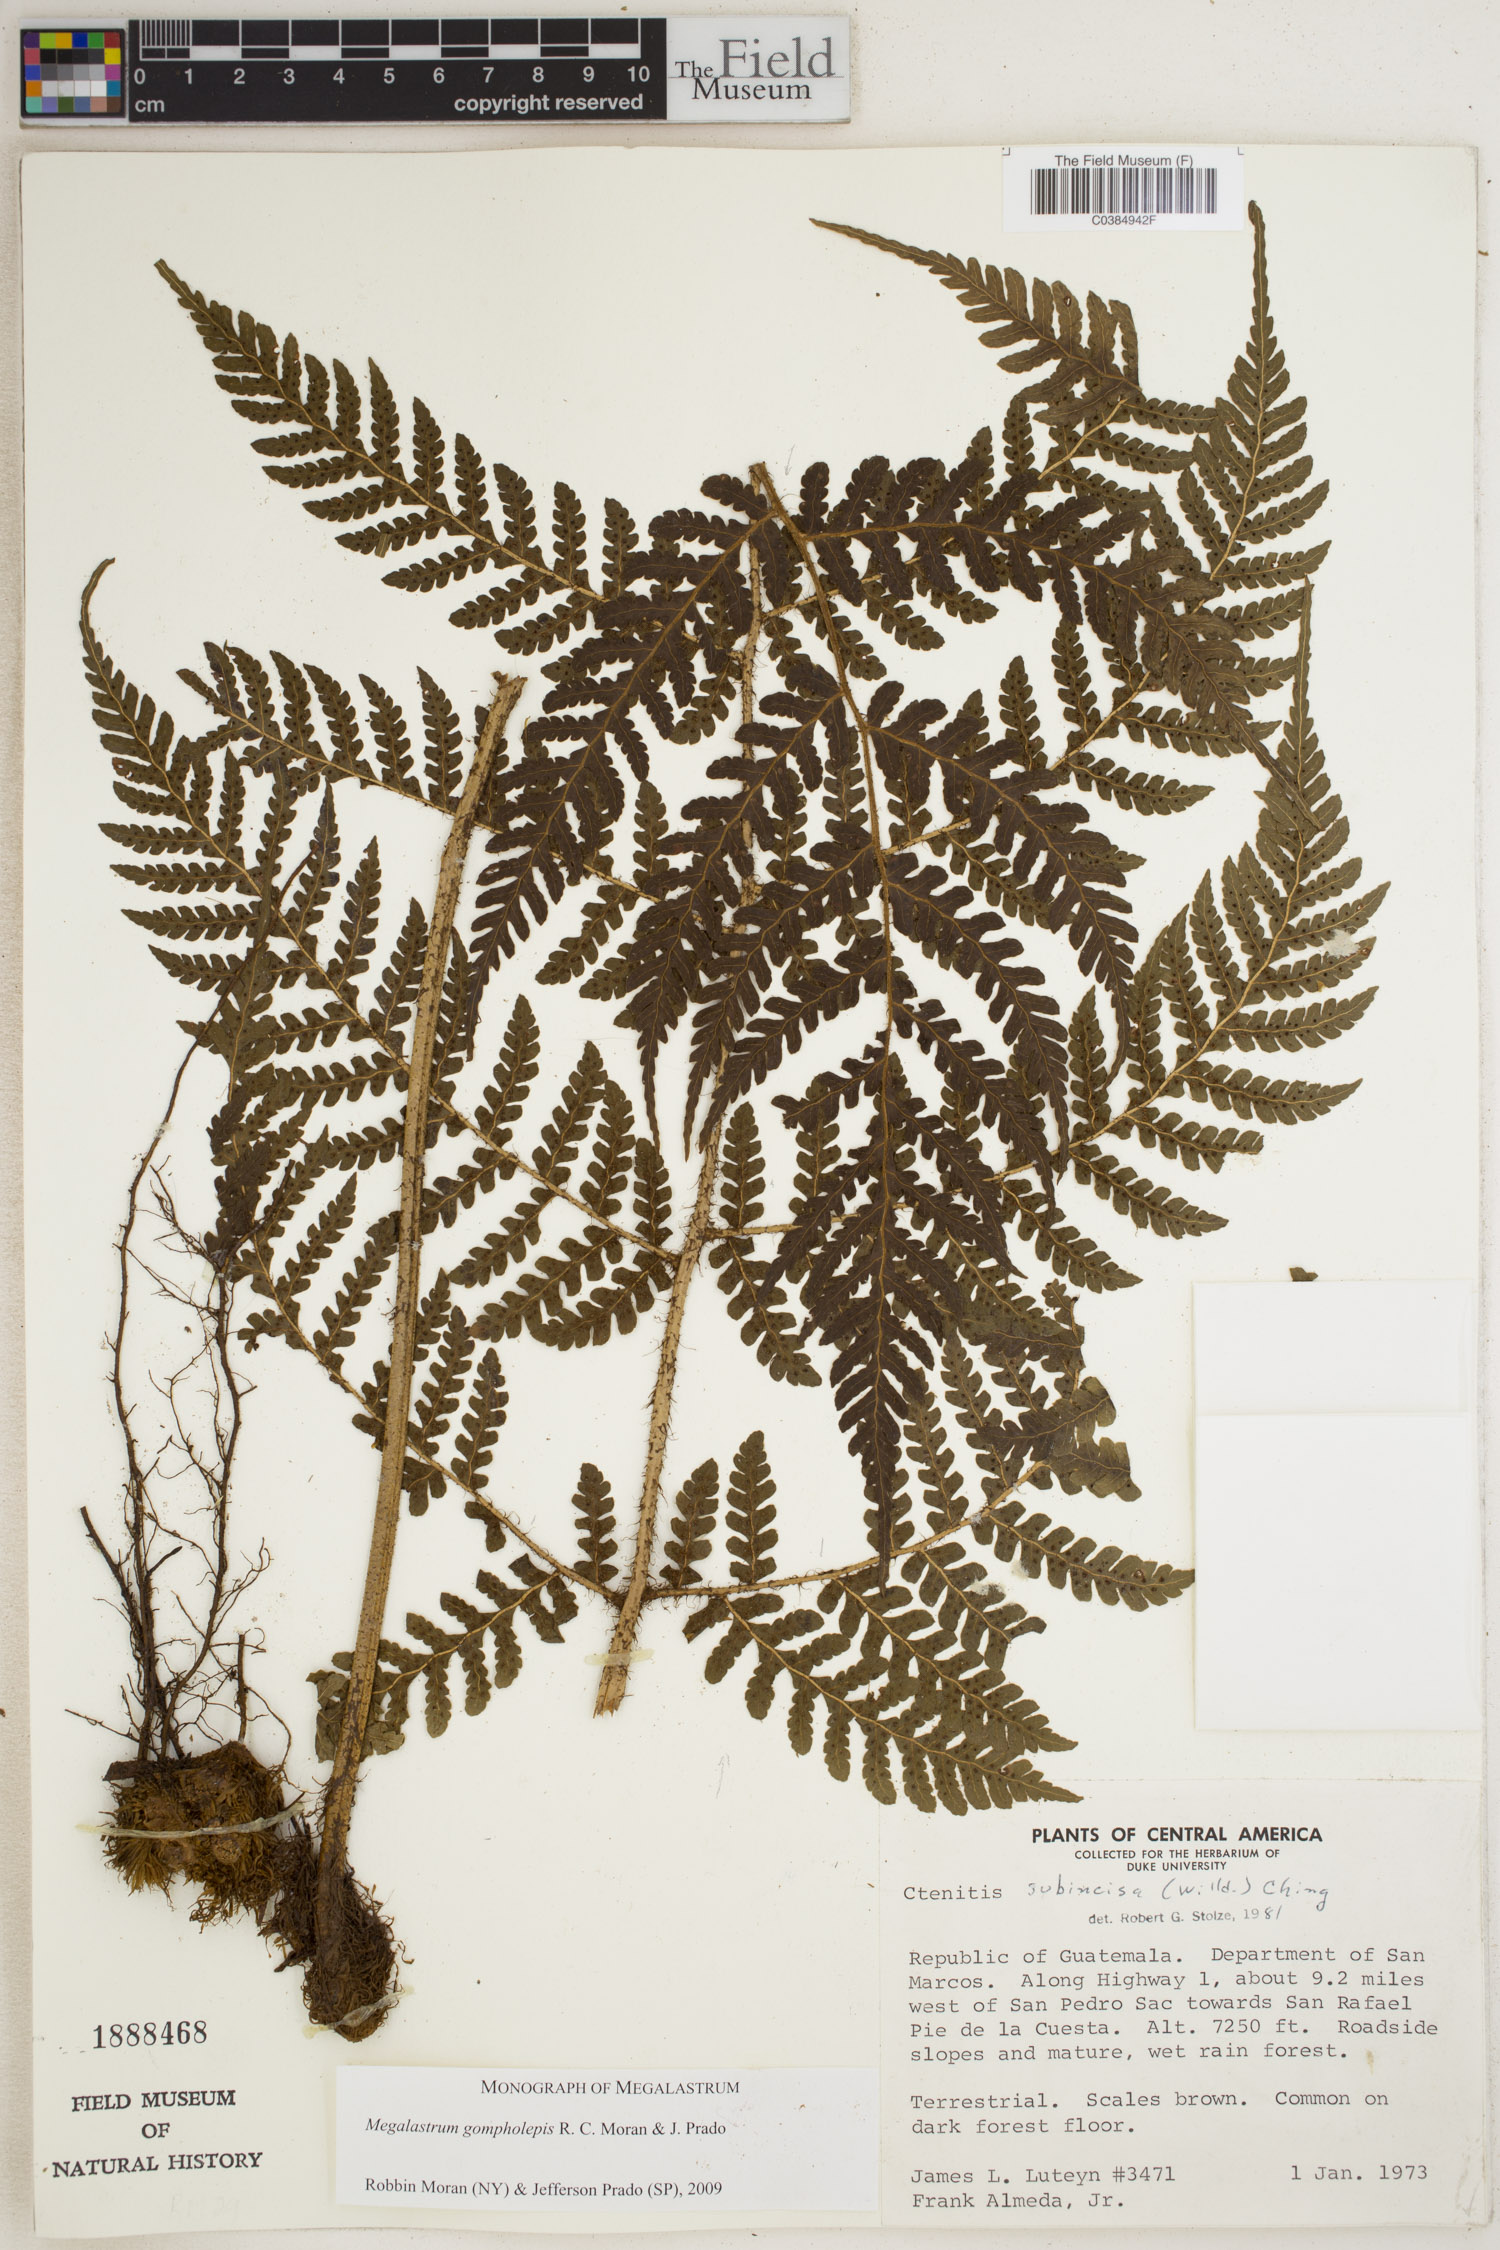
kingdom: Plantae
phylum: Tracheophyta
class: Polypodiopsida
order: Polypodiales
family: Dryopteridaceae
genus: Megalastrum
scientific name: Megalastrum gompholepis
